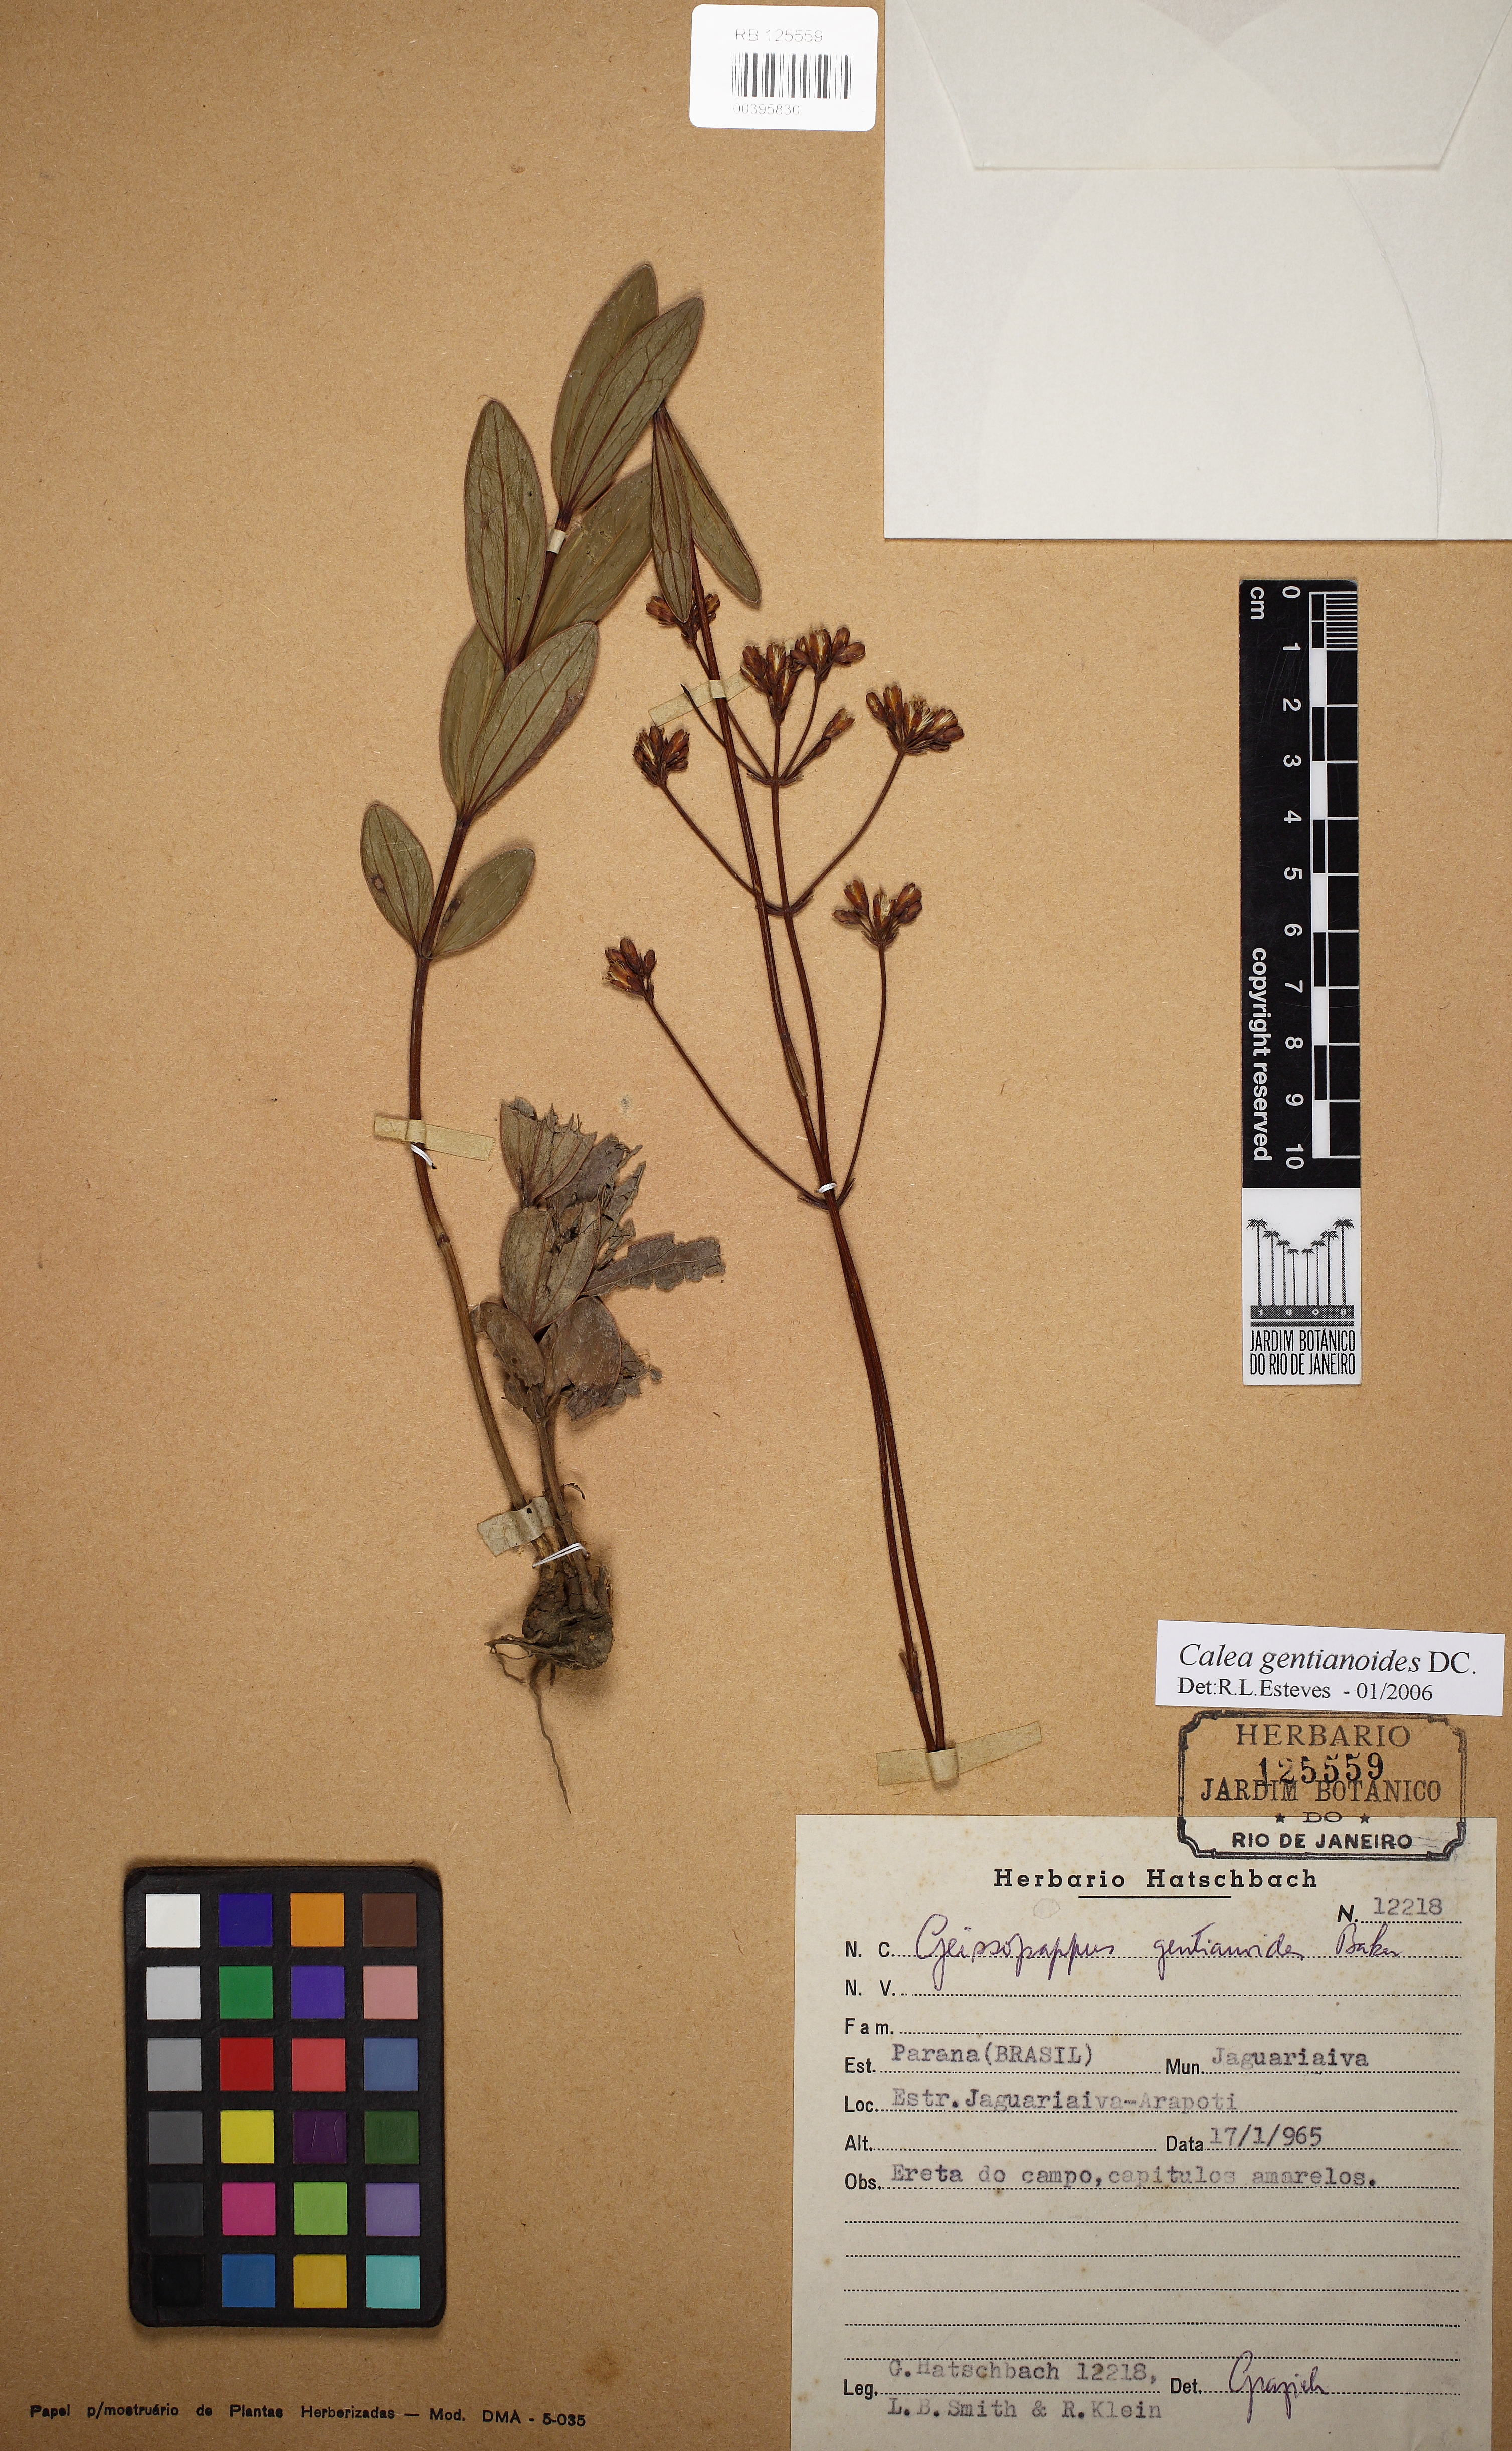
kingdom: Plantae
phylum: Tracheophyta
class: Magnoliopsida
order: Asterales
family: Asteraceae
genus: Calea
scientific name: Calea gentianoides
